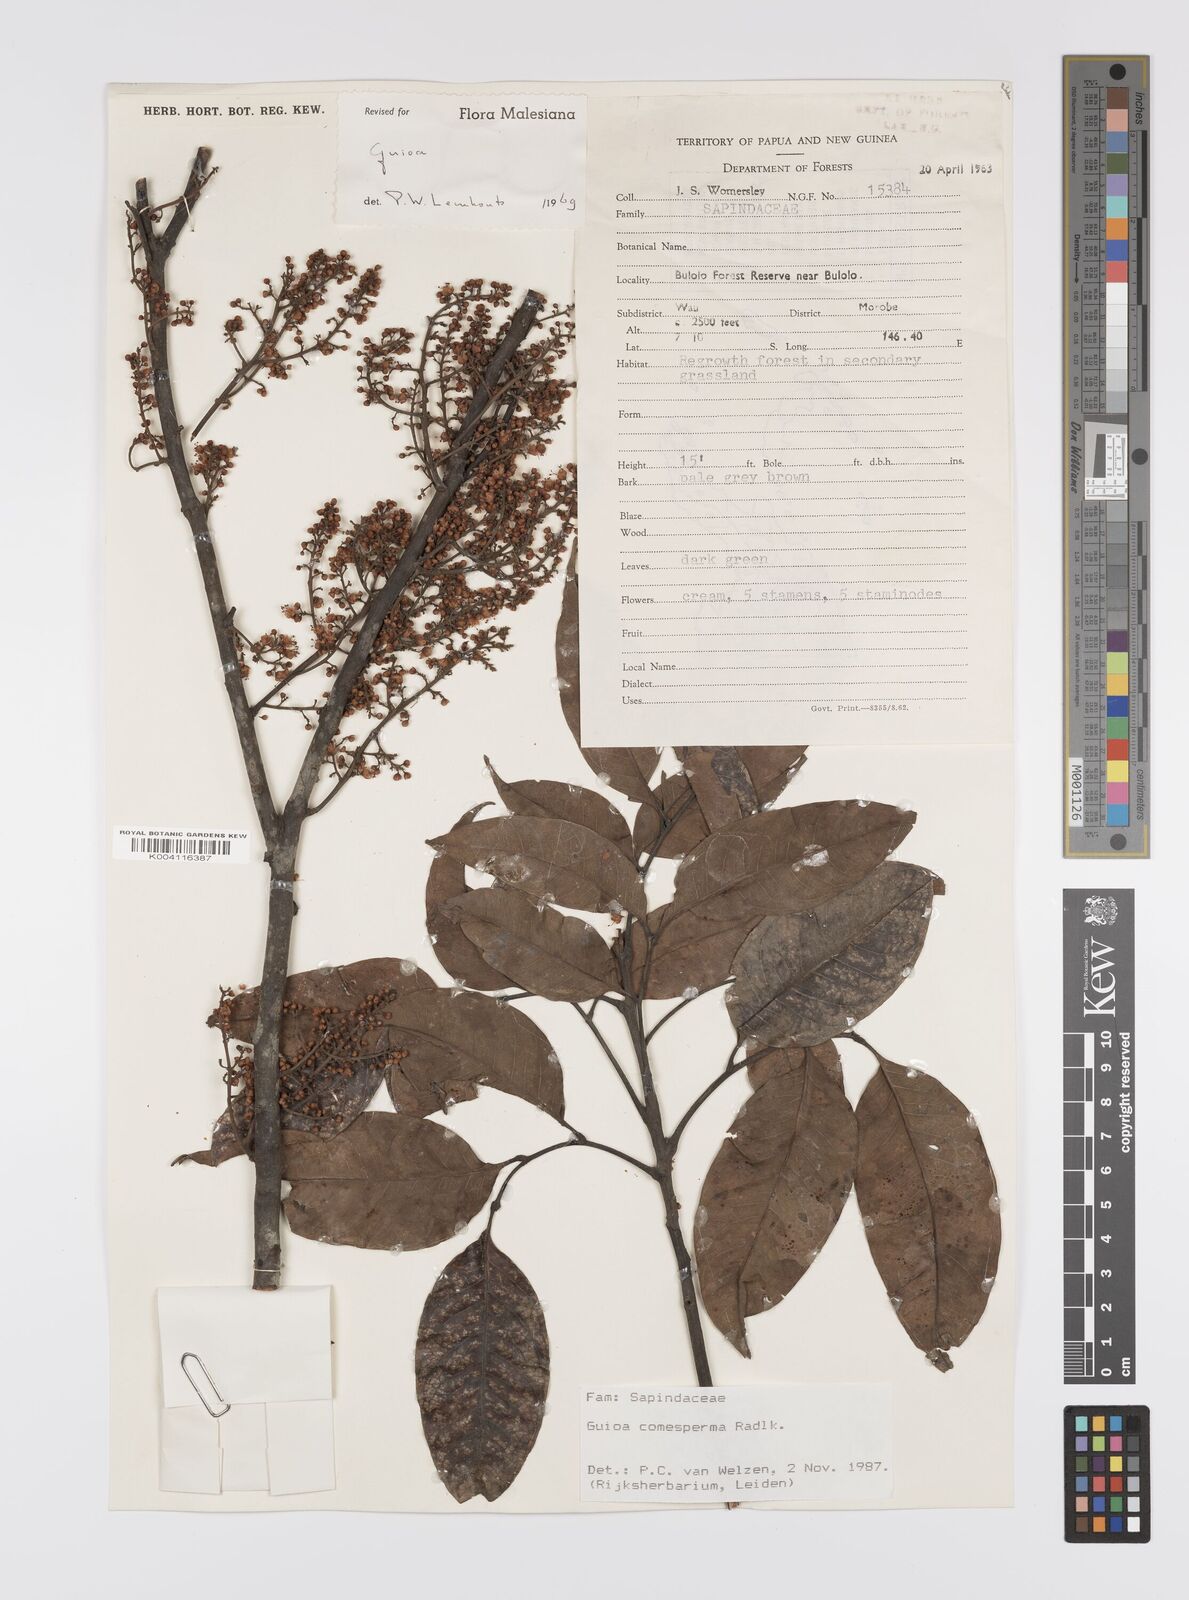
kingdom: Plantae
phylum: Tracheophyta
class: Magnoliopsida
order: Sapindales
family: Sapindaceae
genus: Guioa
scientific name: Guioa comesperma
